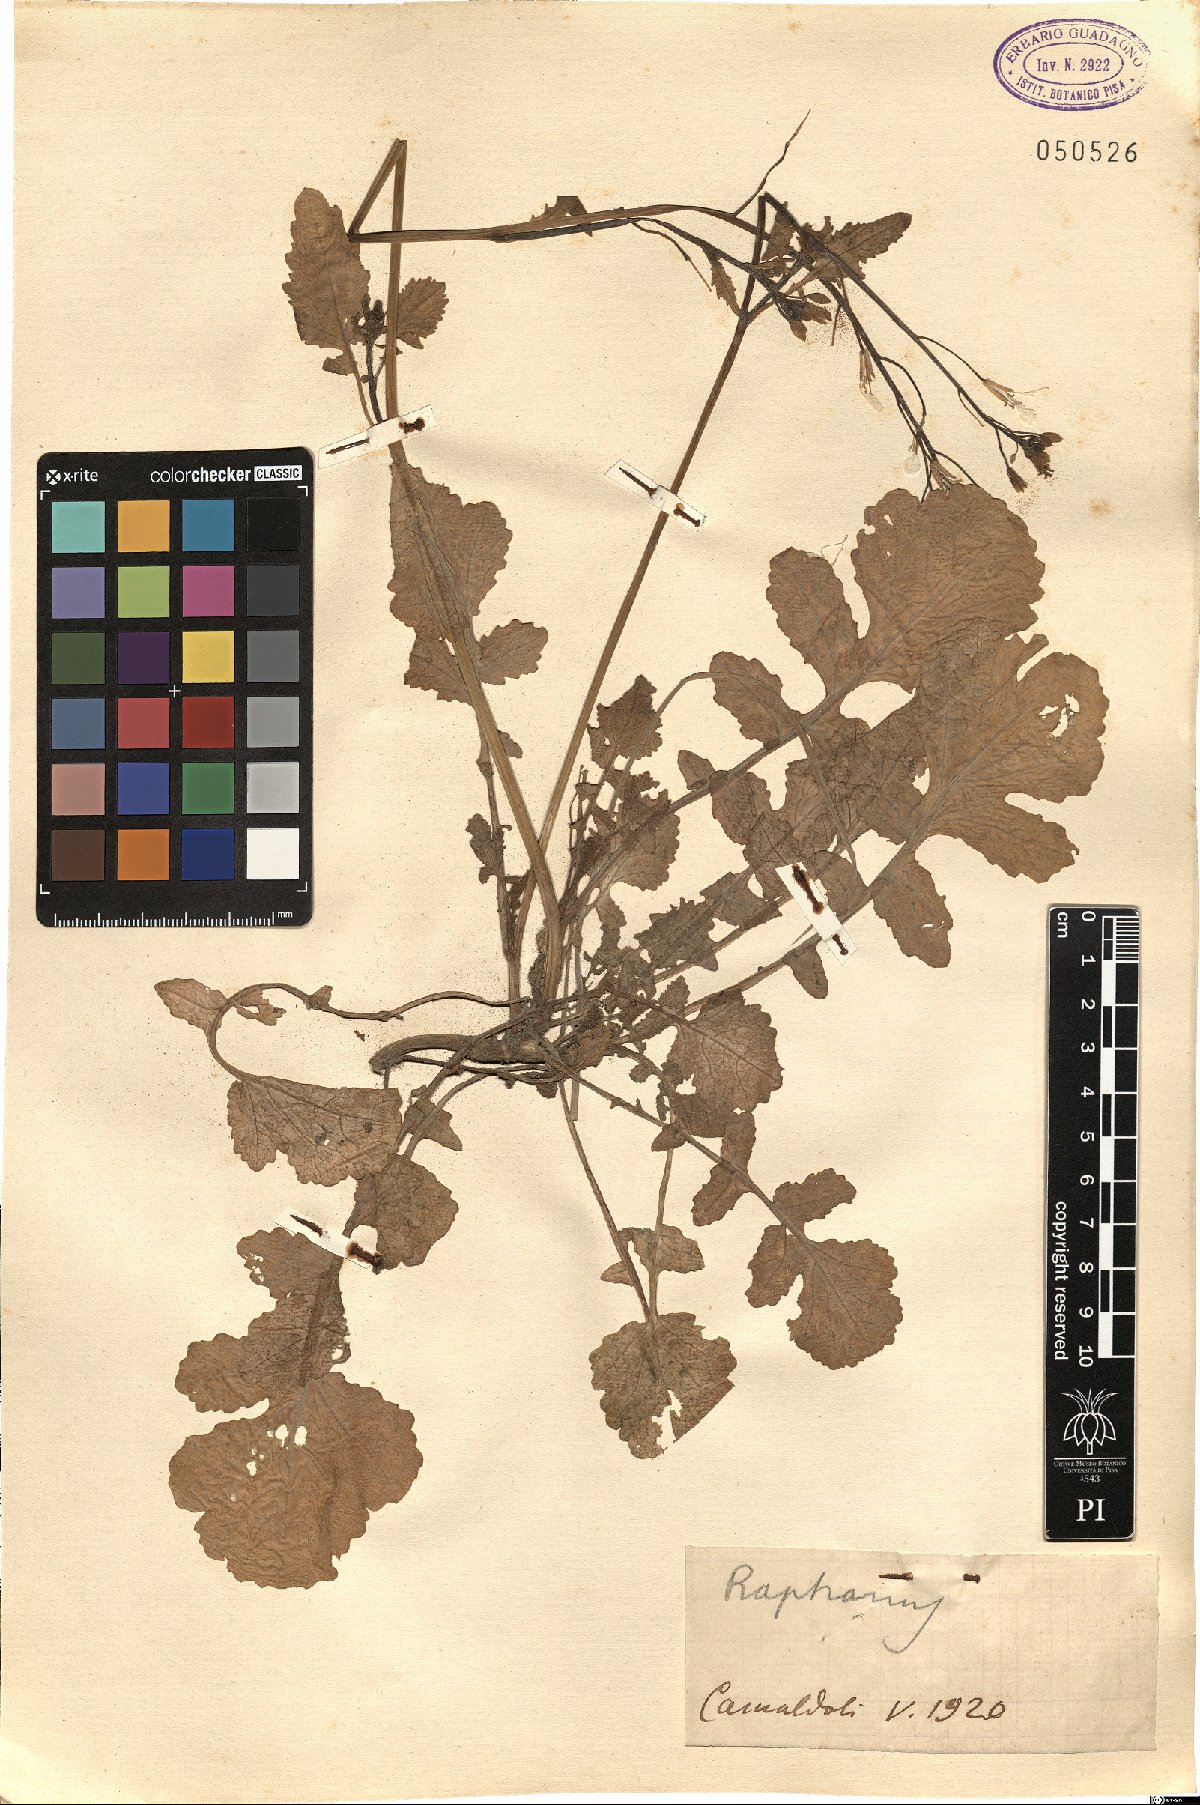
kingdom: Plantae
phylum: Tracheophyta
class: Magnoliopsida
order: Brassicales
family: Brassicaceae
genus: Raphanus
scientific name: Raphanus
